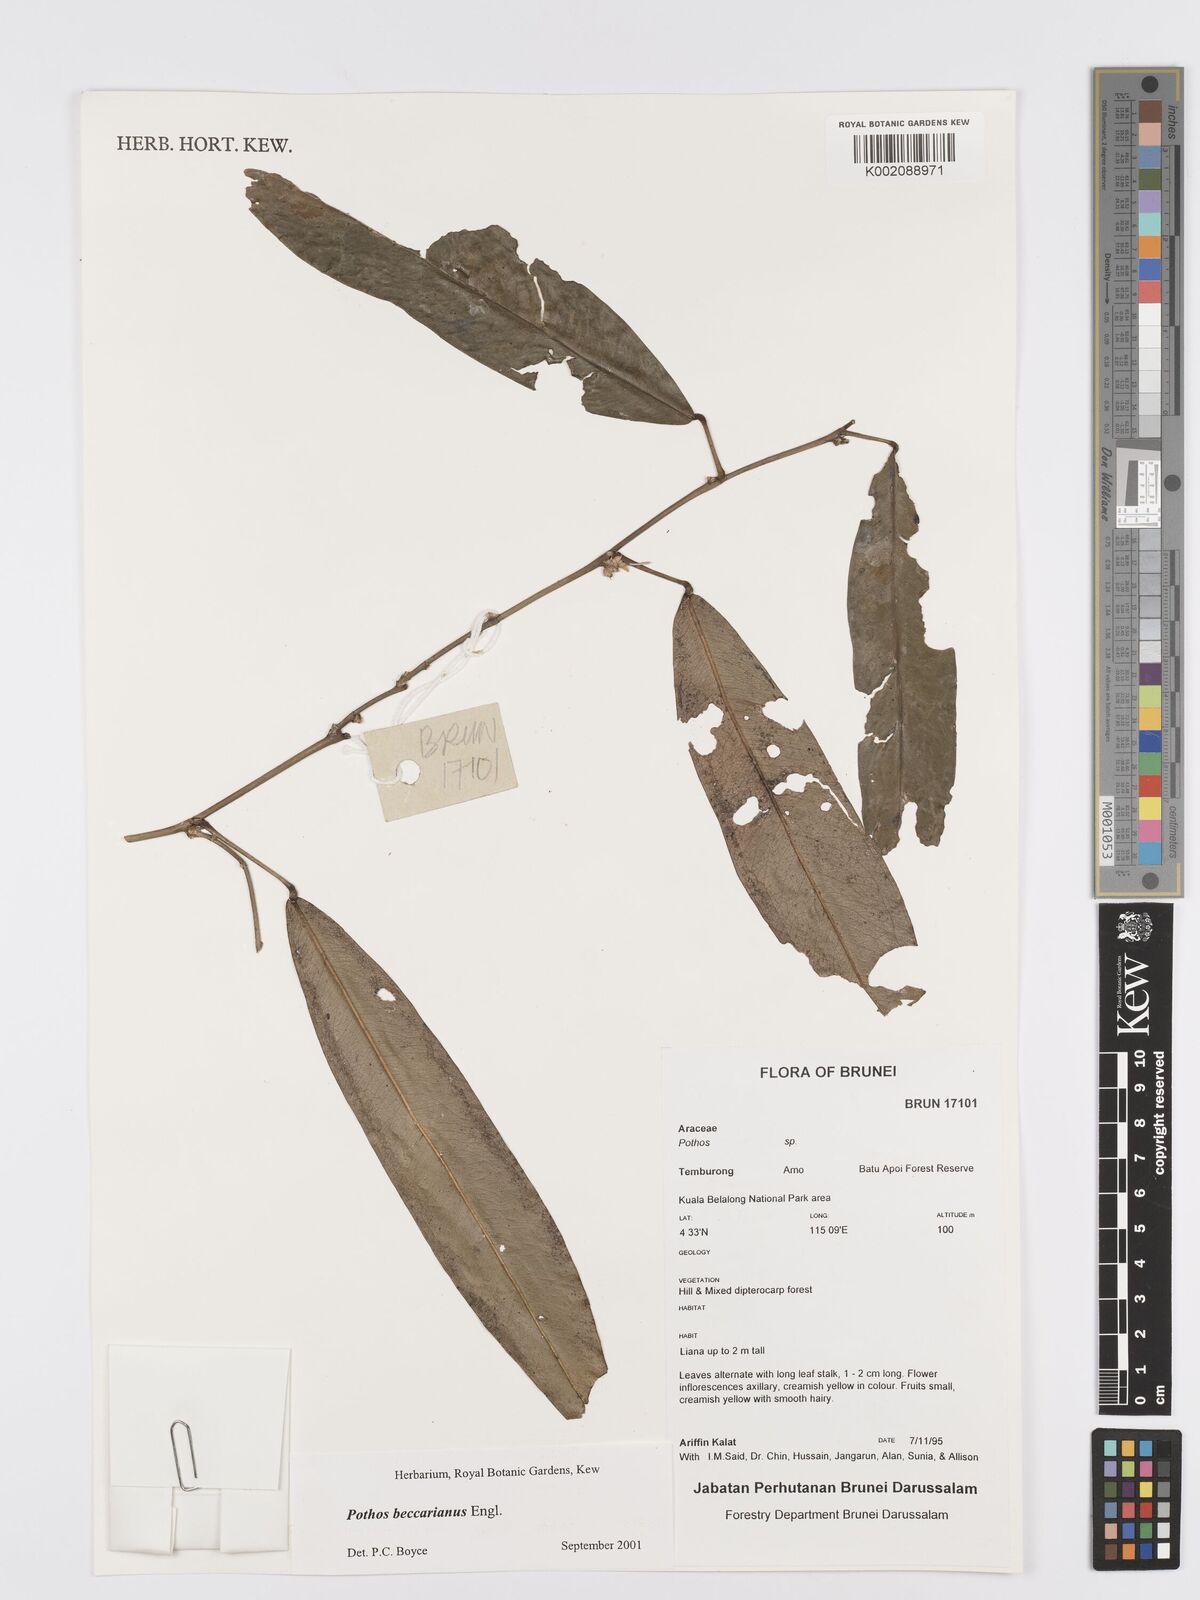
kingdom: Plantae
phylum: Tracheophyta
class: Liliopsida
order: Alismatales
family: Araceae
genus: Pothos
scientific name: Pothos beccarianus
